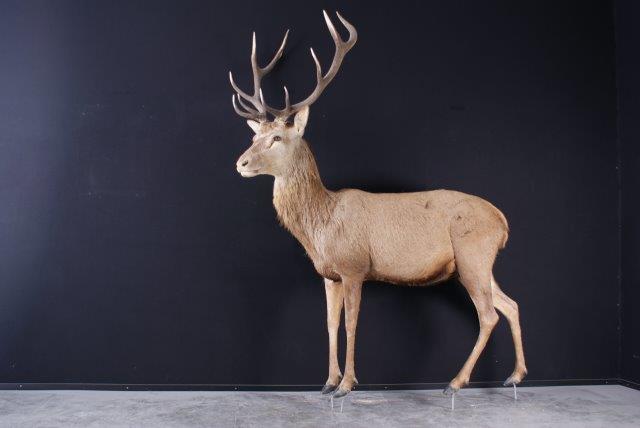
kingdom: Animalia
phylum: Chordata
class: Mammalia
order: Artiodactyla
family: Cervidae
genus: Cervus
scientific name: Cervus elaphus
